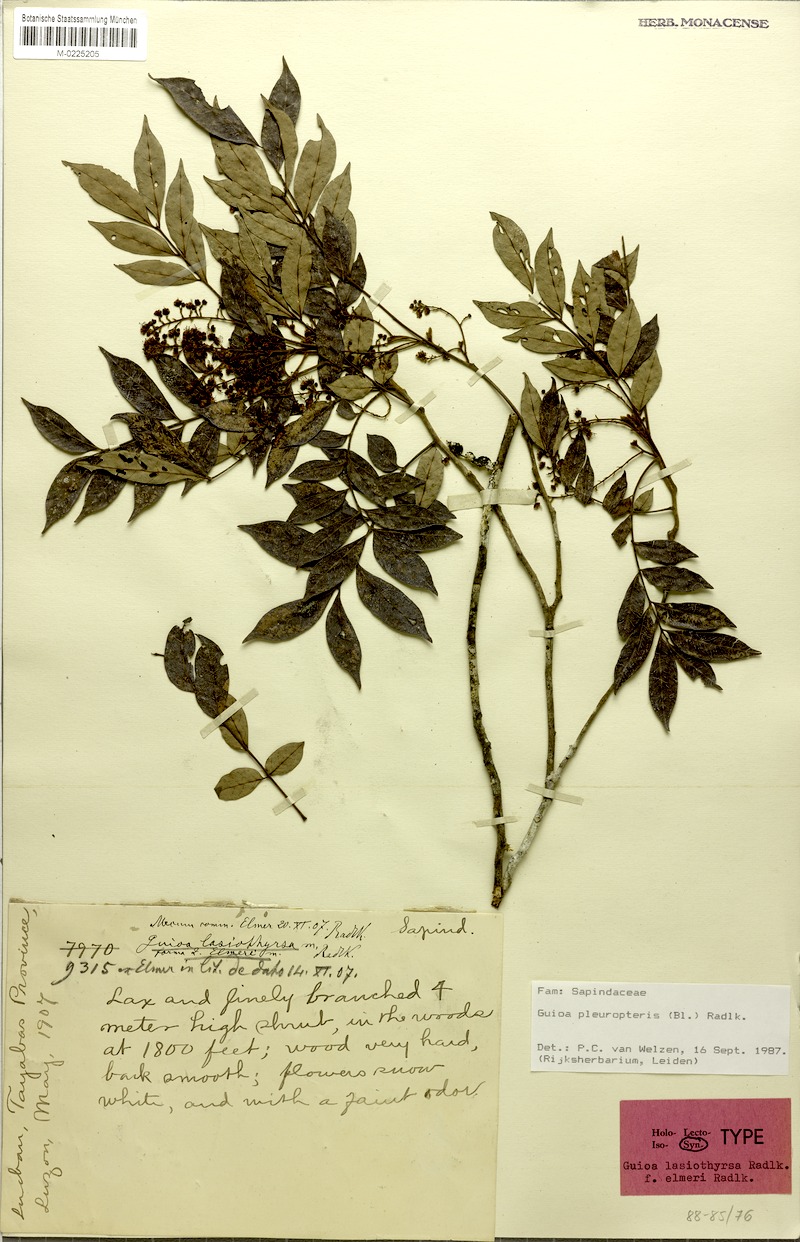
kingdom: Plantae
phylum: Tracheophyta
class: Magnoliopsida
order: Sapindales
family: Sapindaceae
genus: Guioa
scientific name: Guioa pleuropteris
